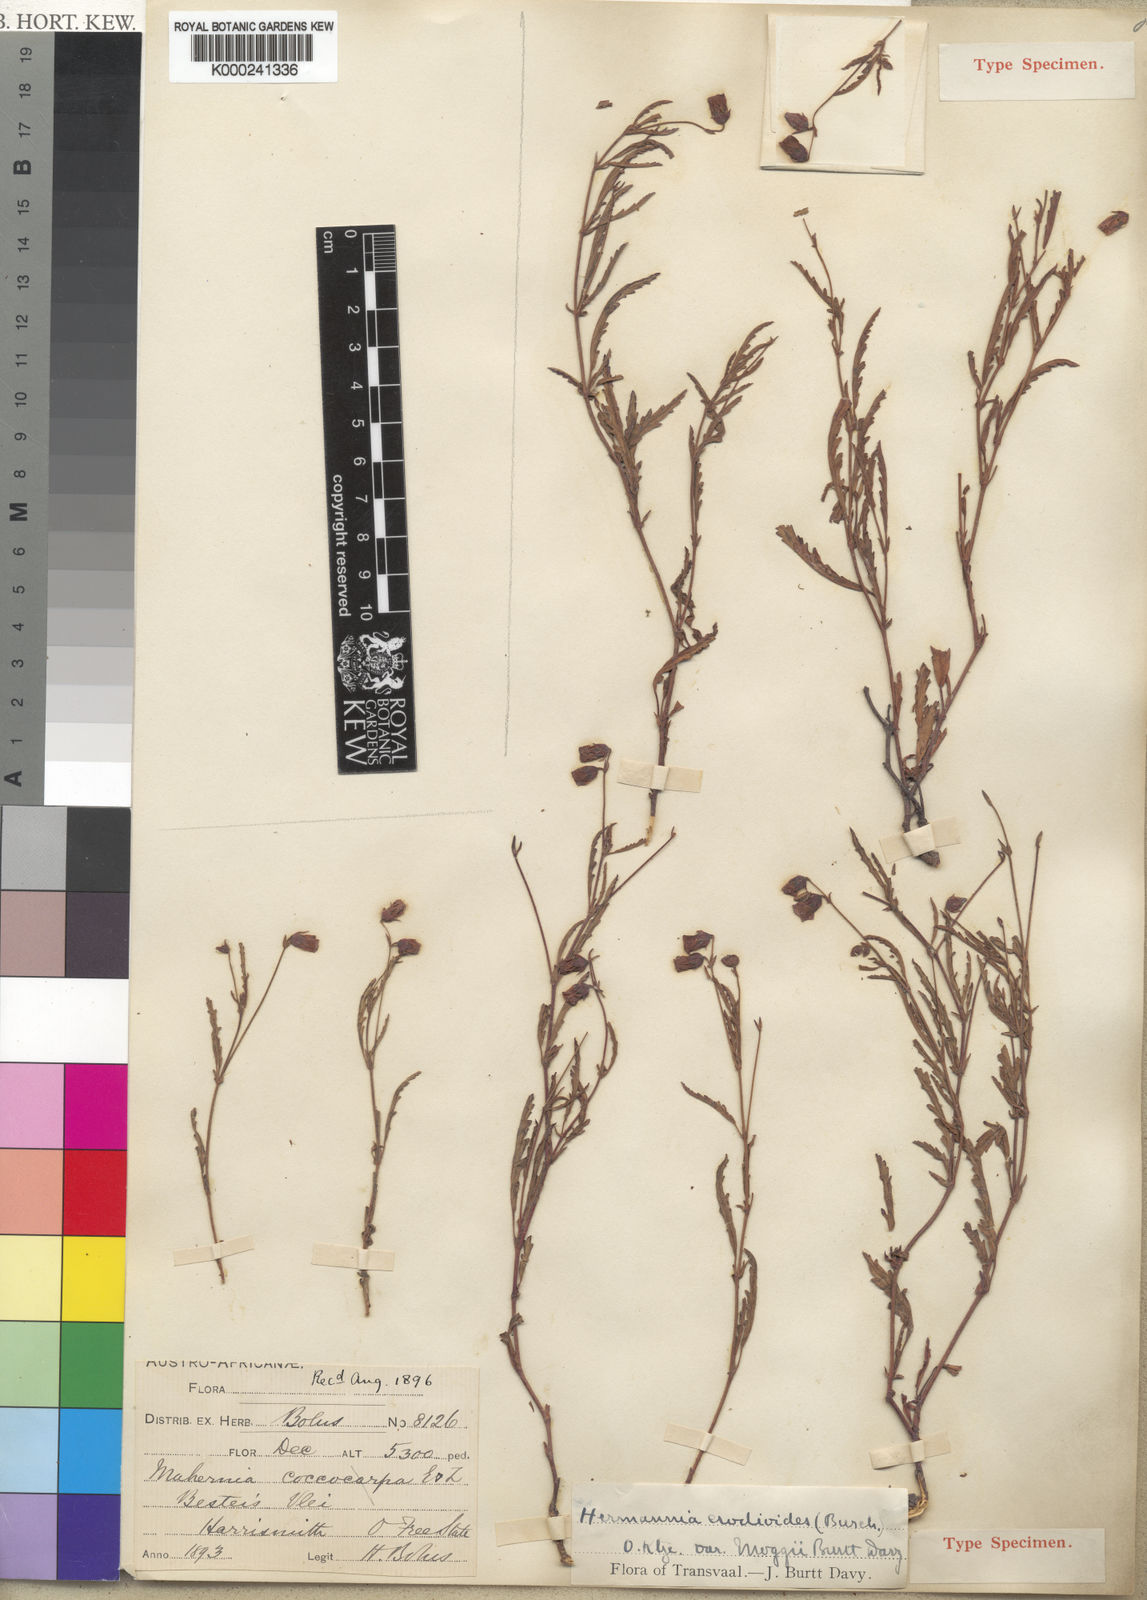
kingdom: Plantae
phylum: Tracheophyta
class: Magnoliopsida
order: Malvales
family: Malvaceae
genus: Hermannia
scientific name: Hermannia
